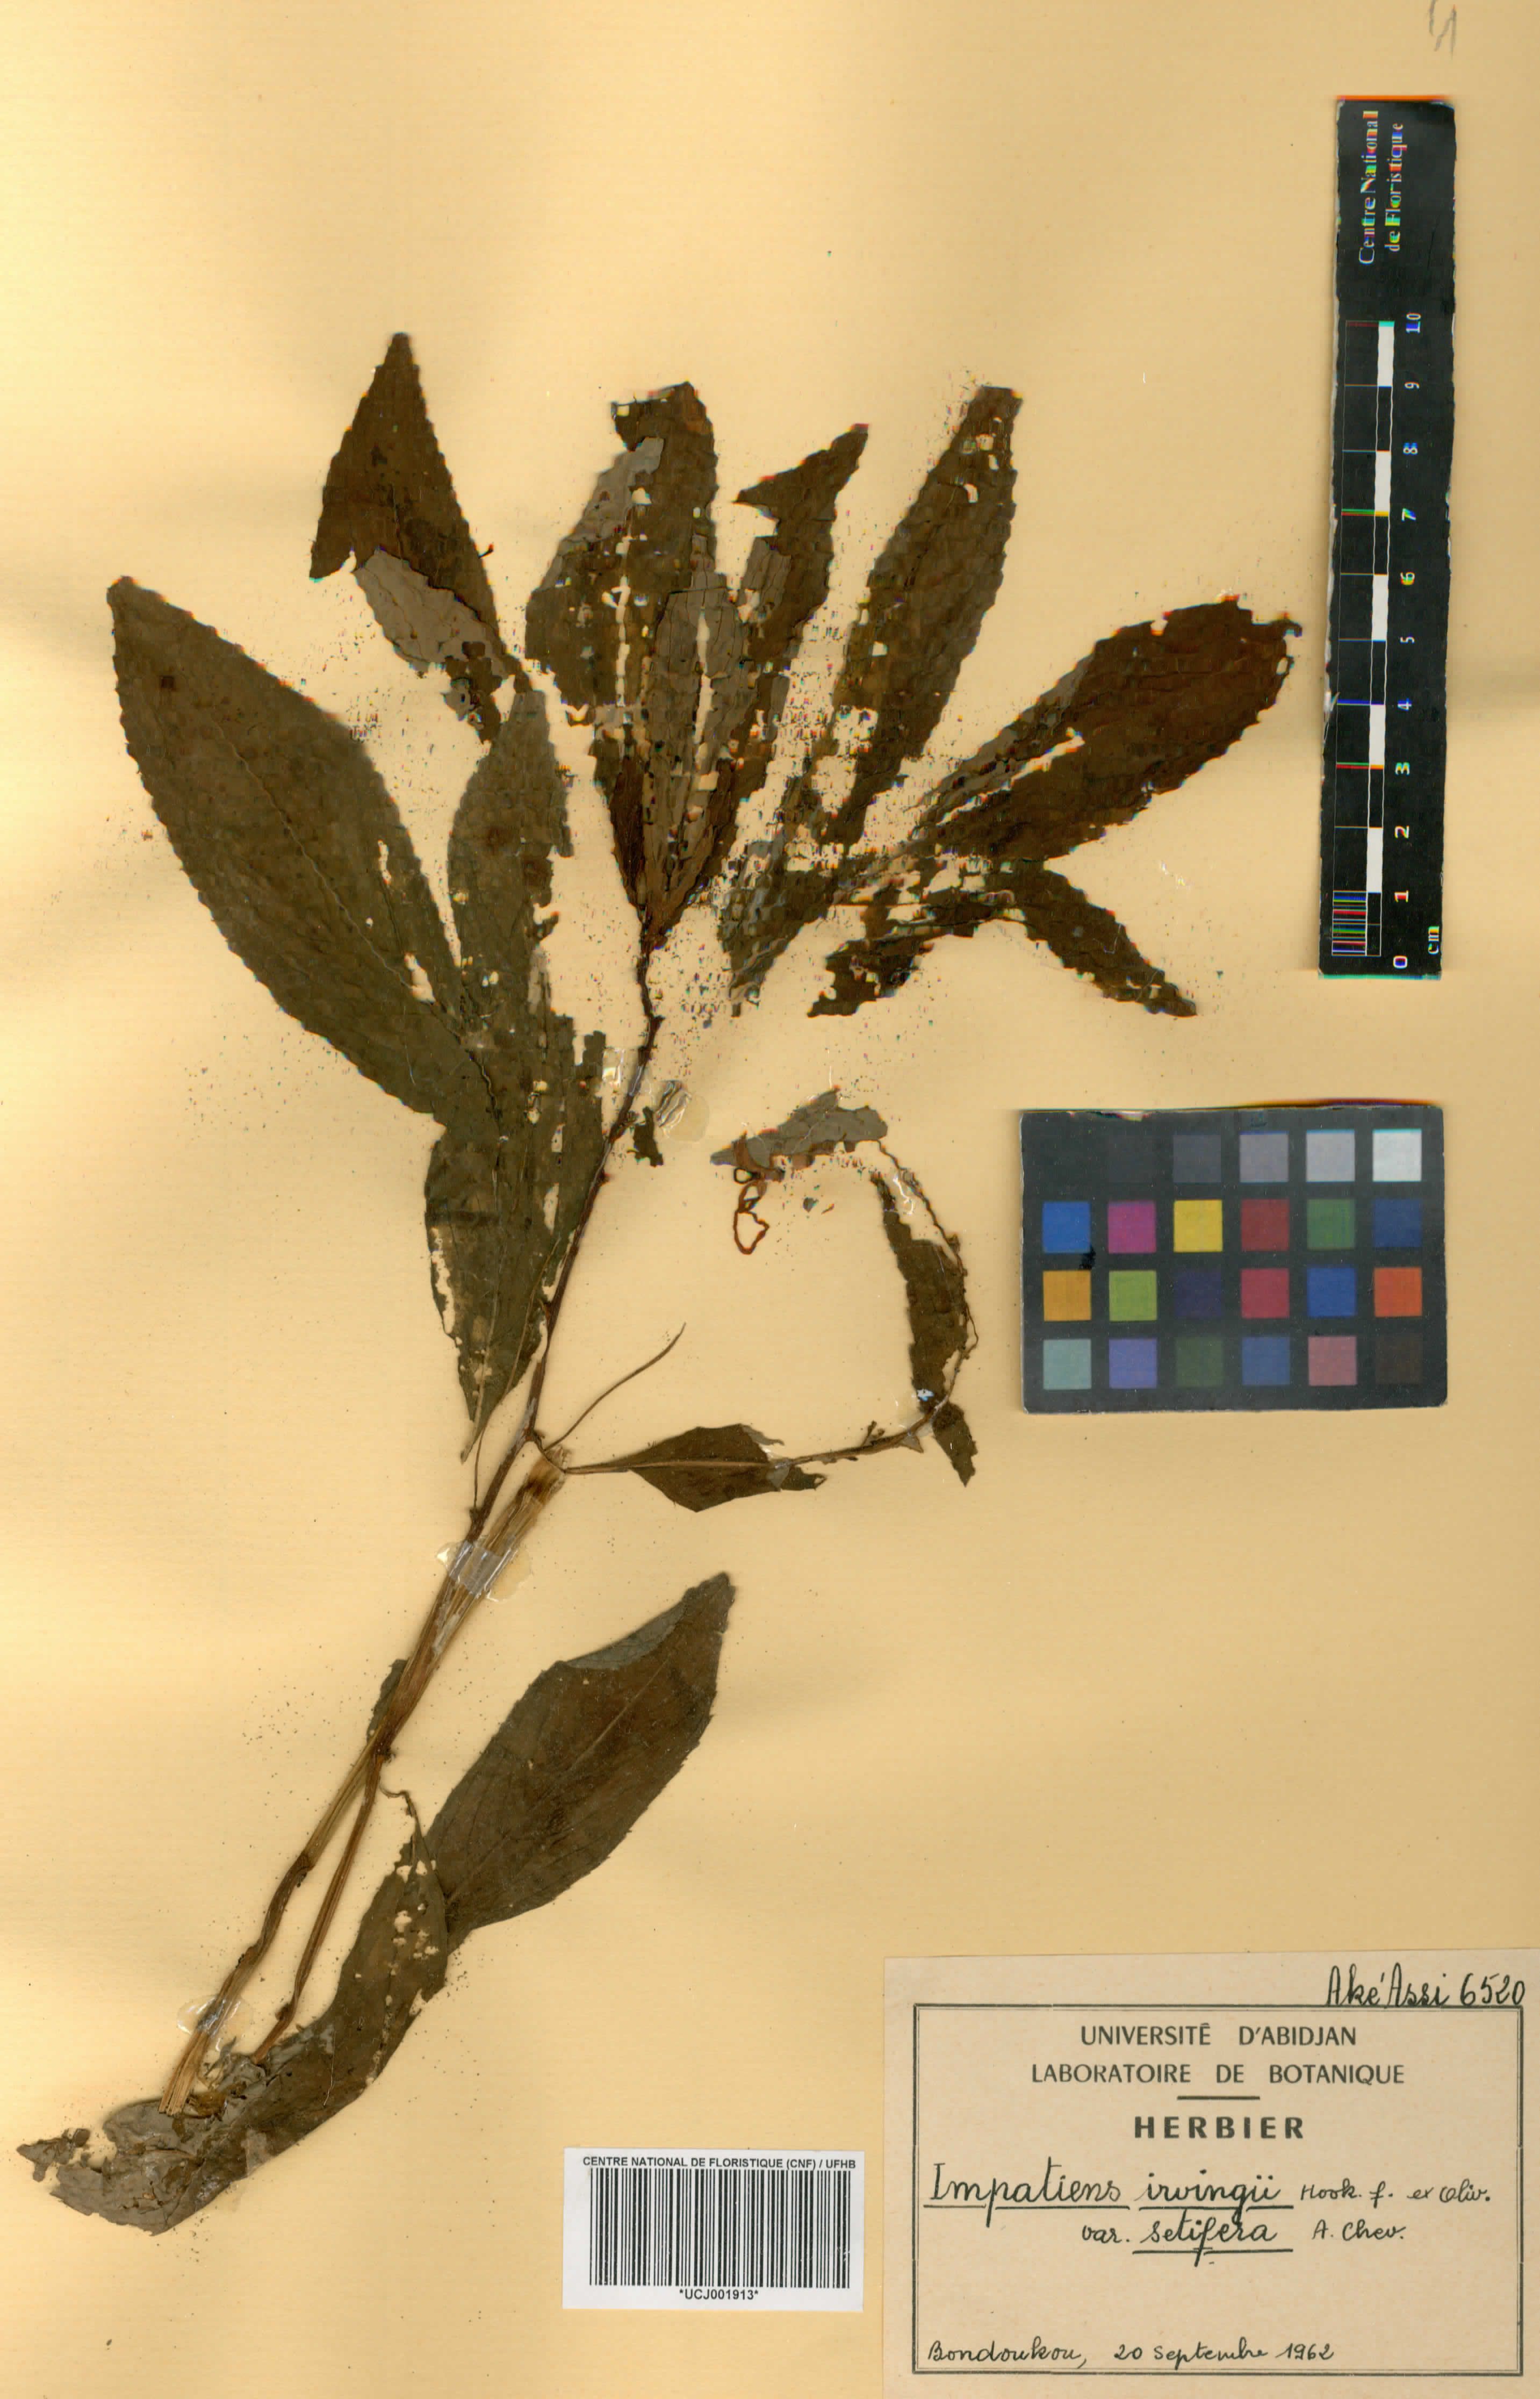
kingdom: Plantae
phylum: Tracheophyta
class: Magnoliopsida
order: Ericales
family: Balsaminaceae
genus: Impatiens
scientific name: Impatiens irvingii
